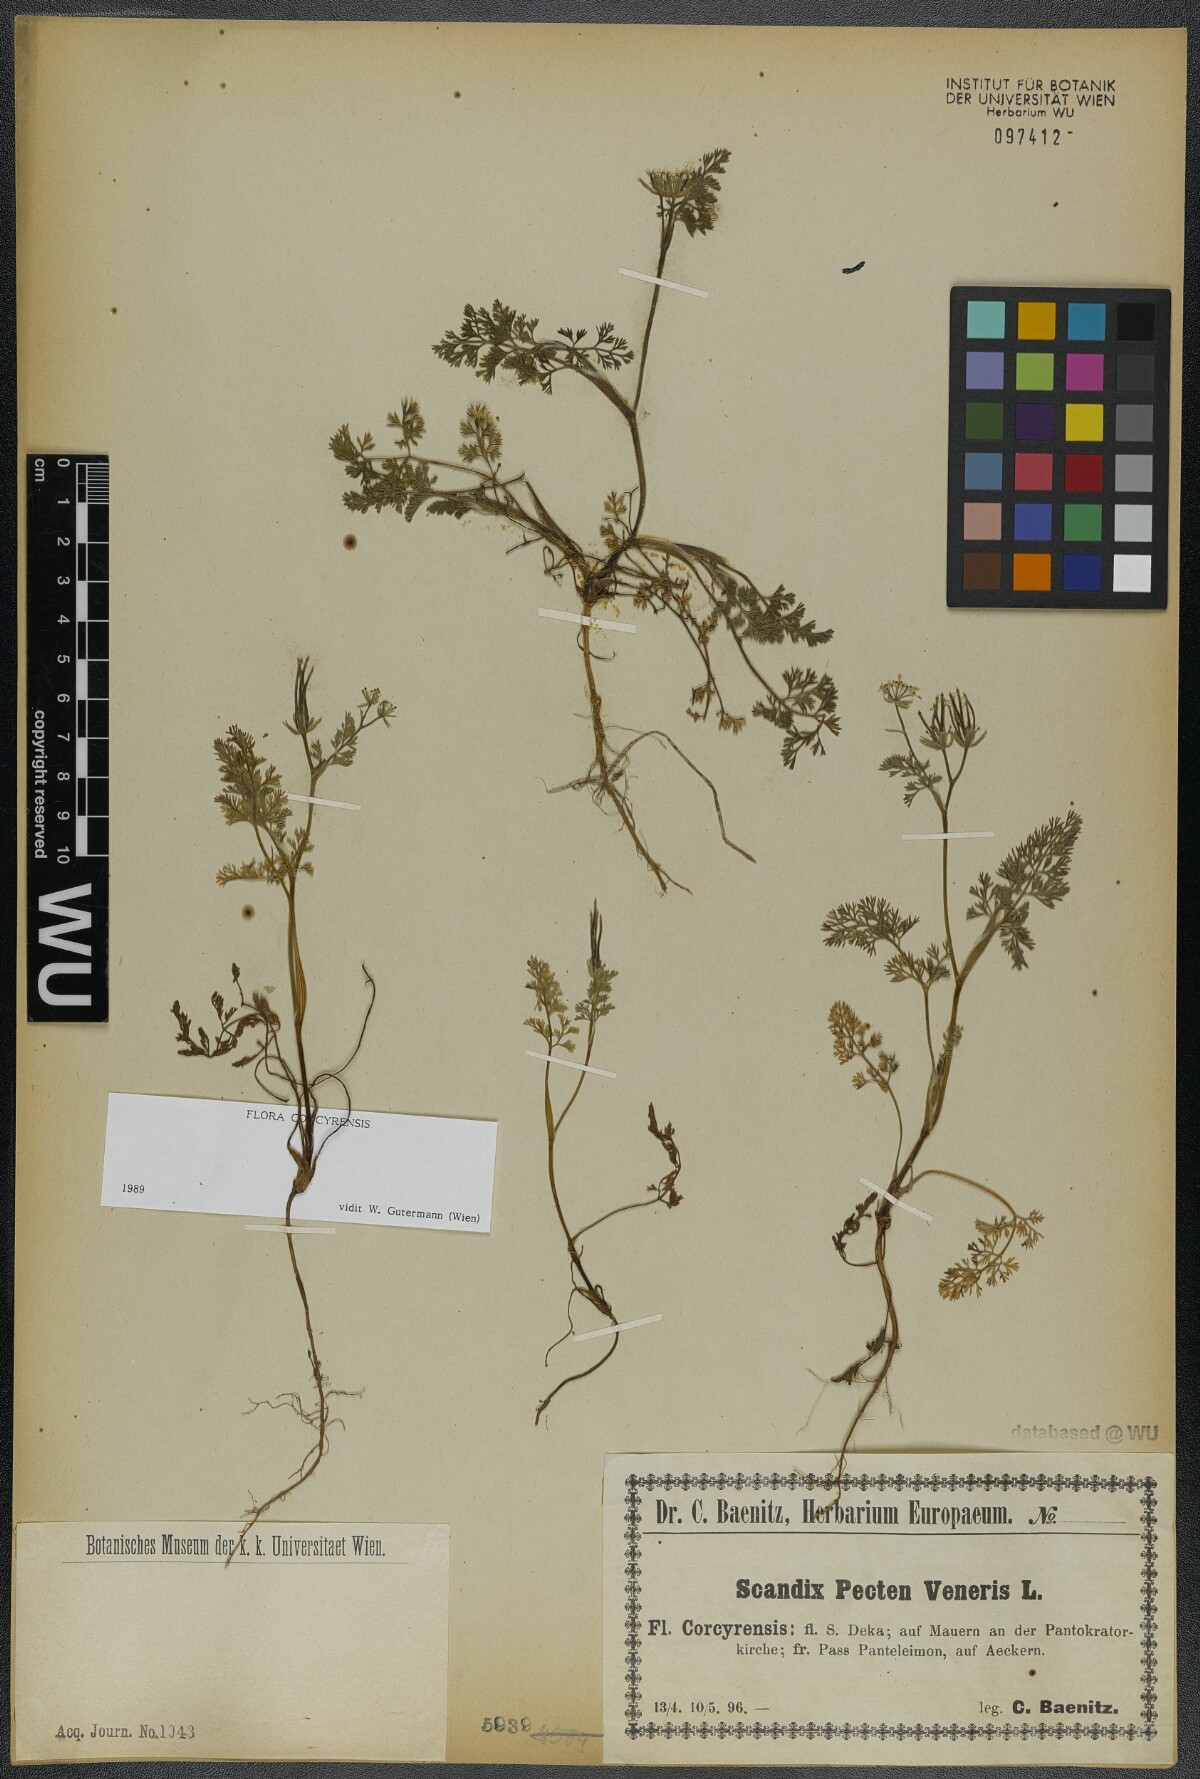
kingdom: Plantae
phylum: Tracheophyta
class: Magnoliopsida
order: Apiales
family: Apiaceae
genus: Scandix
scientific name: Scandix pecten-veneris
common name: Shepherd's-needle
